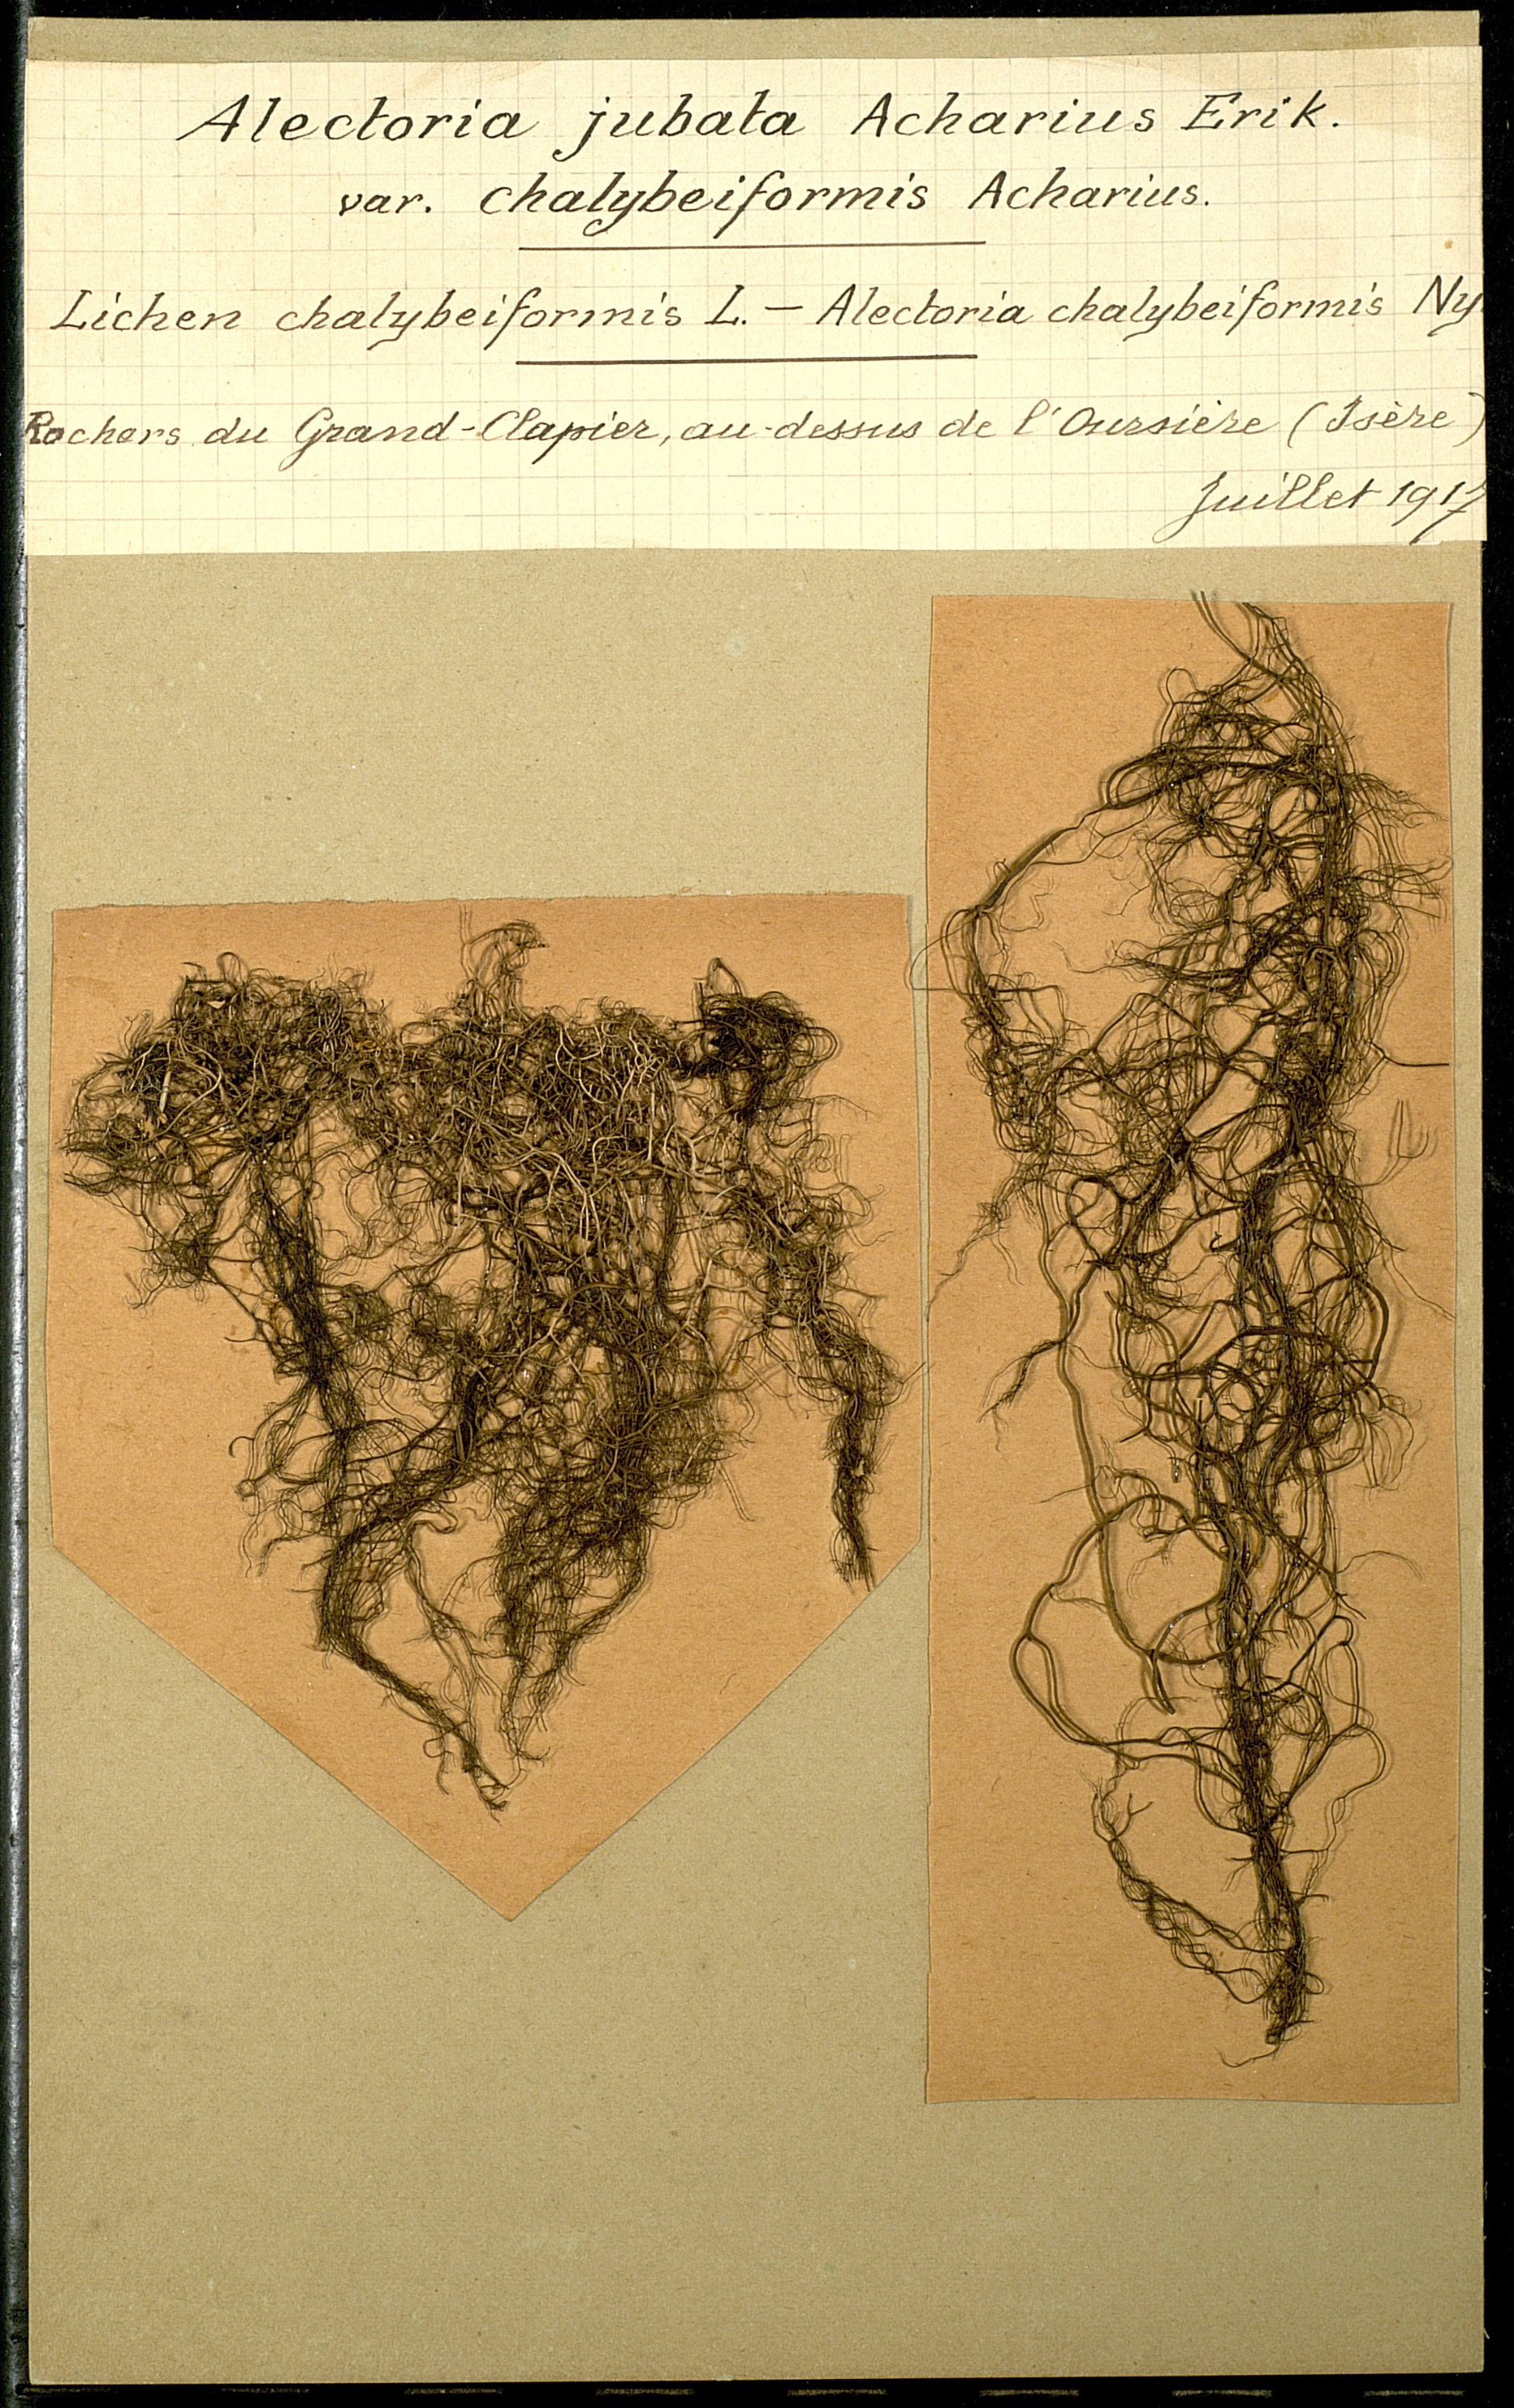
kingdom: Fungi
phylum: Ascomycota
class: Lecanoromycetes
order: Lecanorales
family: Parmeliaceae
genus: Bryoria
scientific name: Bryoria fuscescens
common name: Pale-footed horsehair lichen
